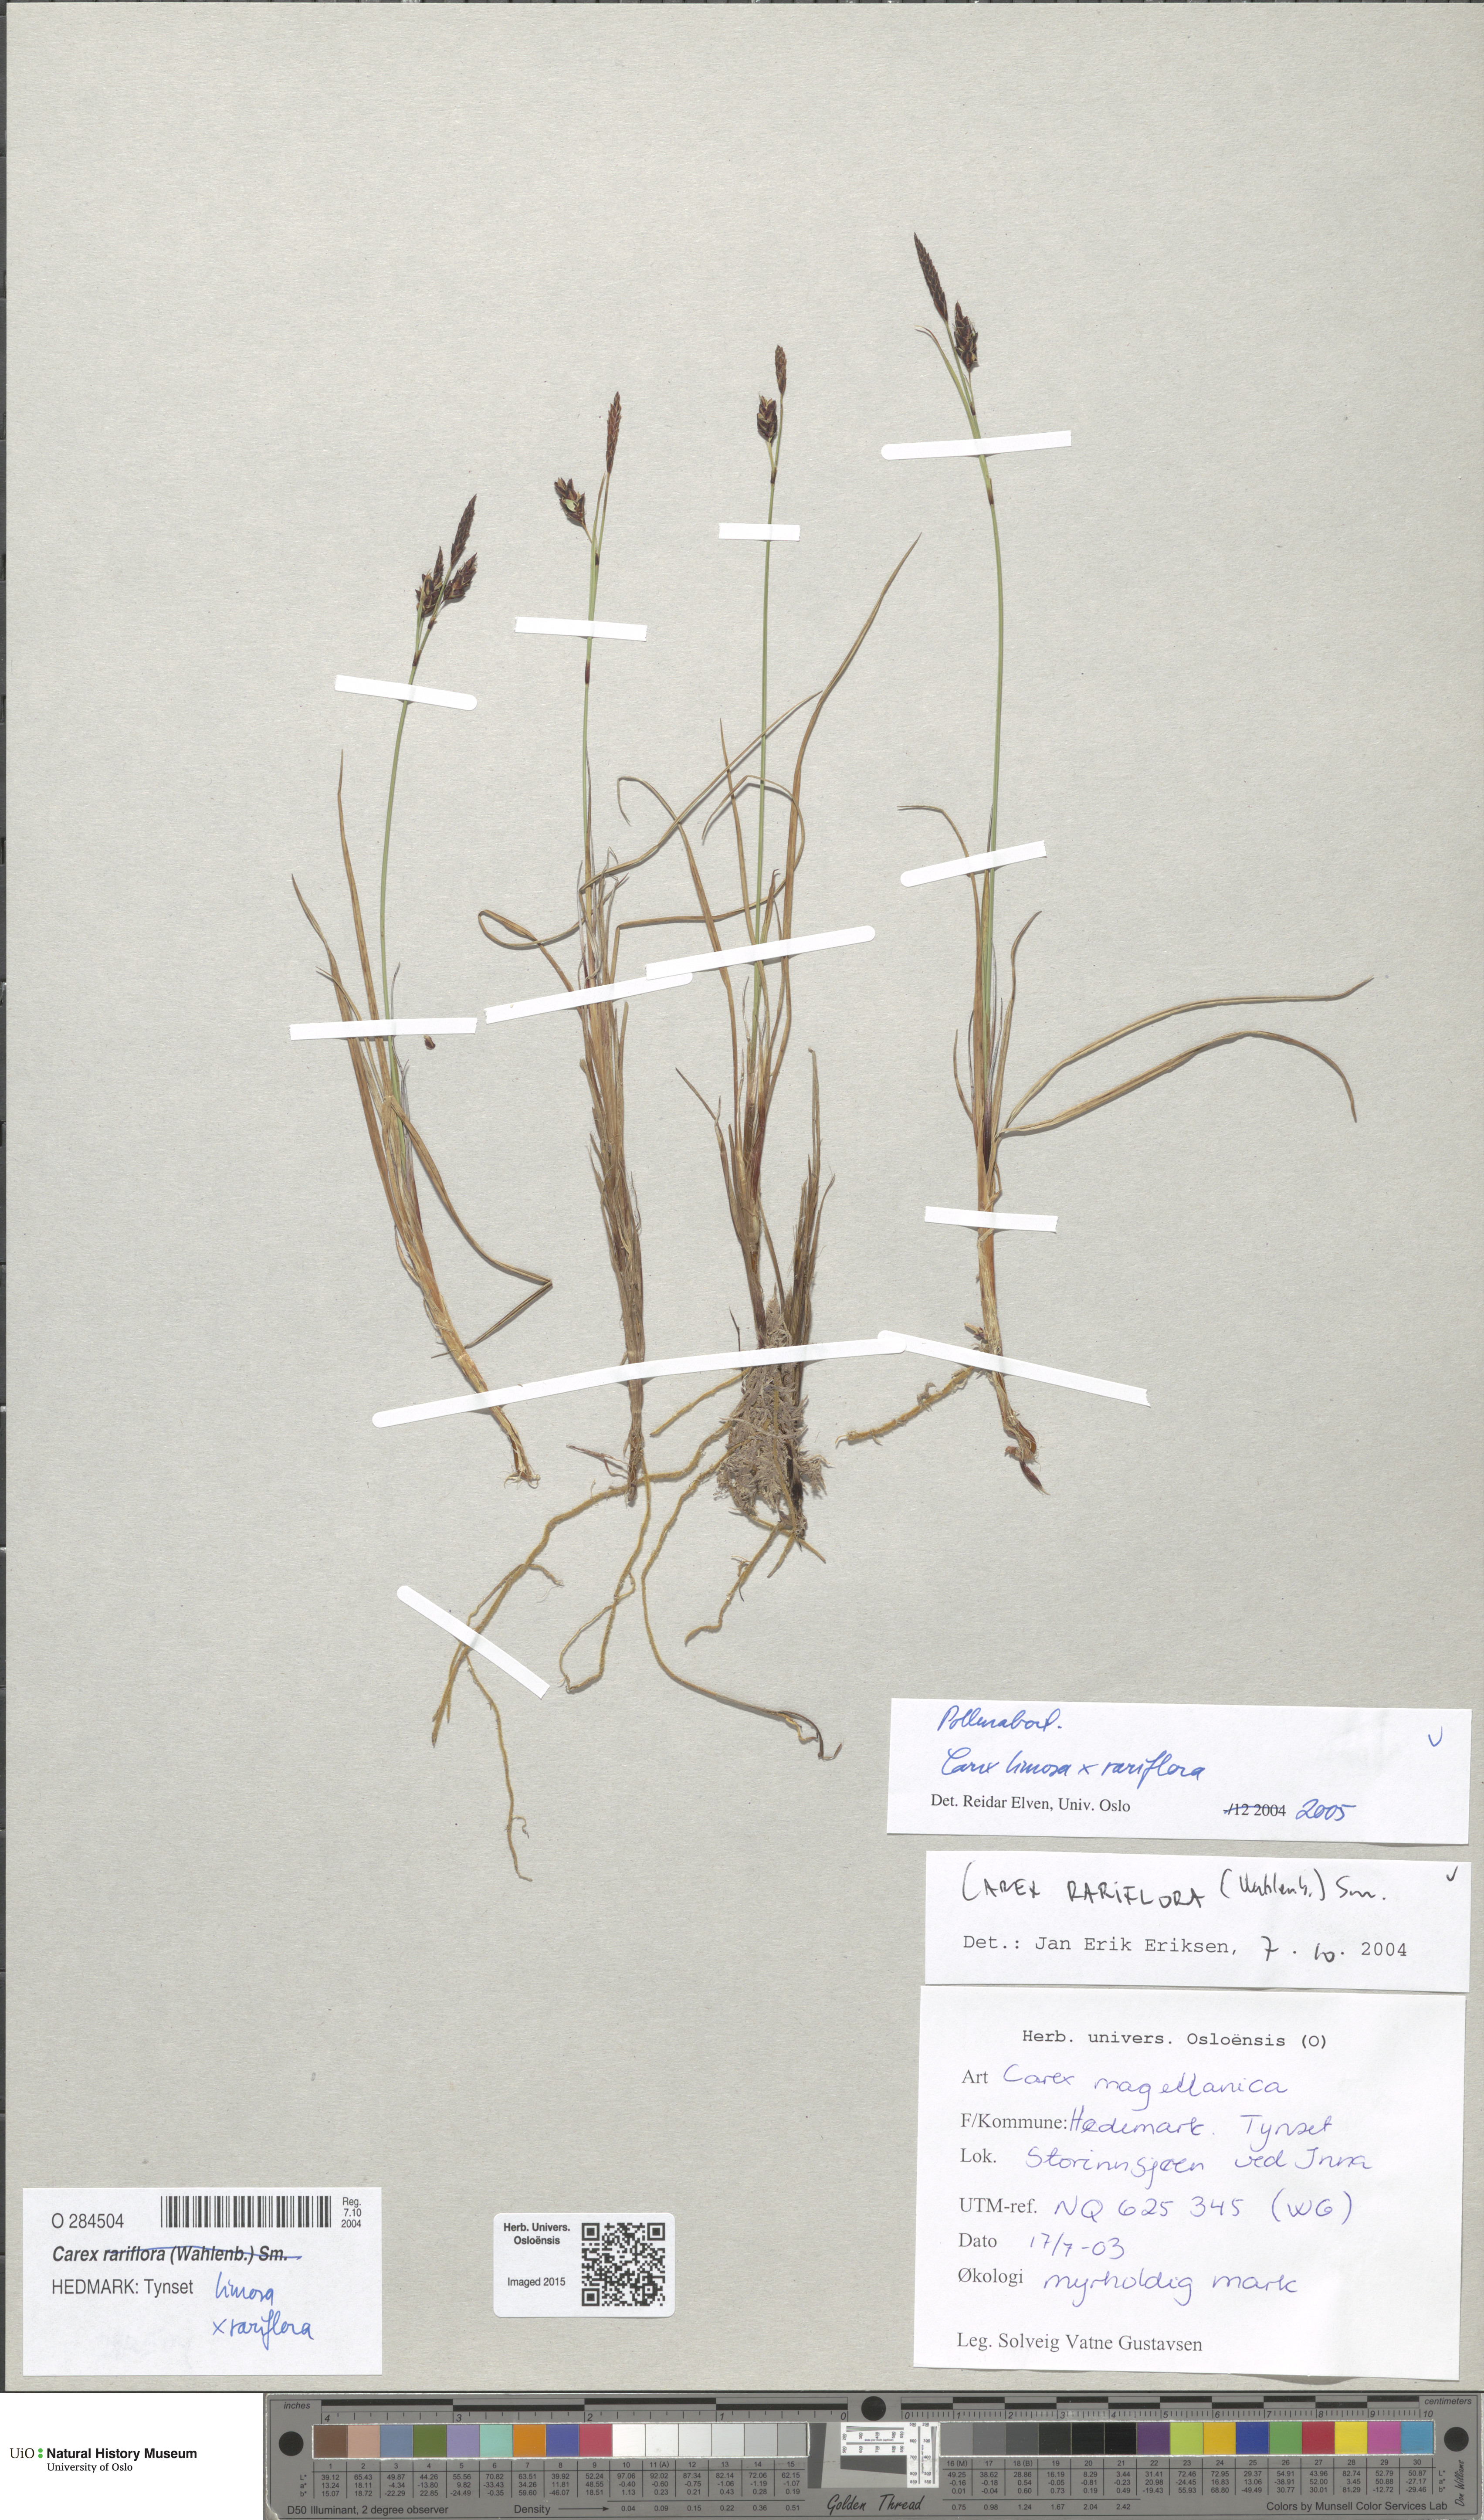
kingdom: Plantae
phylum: Tracheophyta
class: Liliopsida
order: Poales
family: Cyperaceae
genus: Carex
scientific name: Carex
